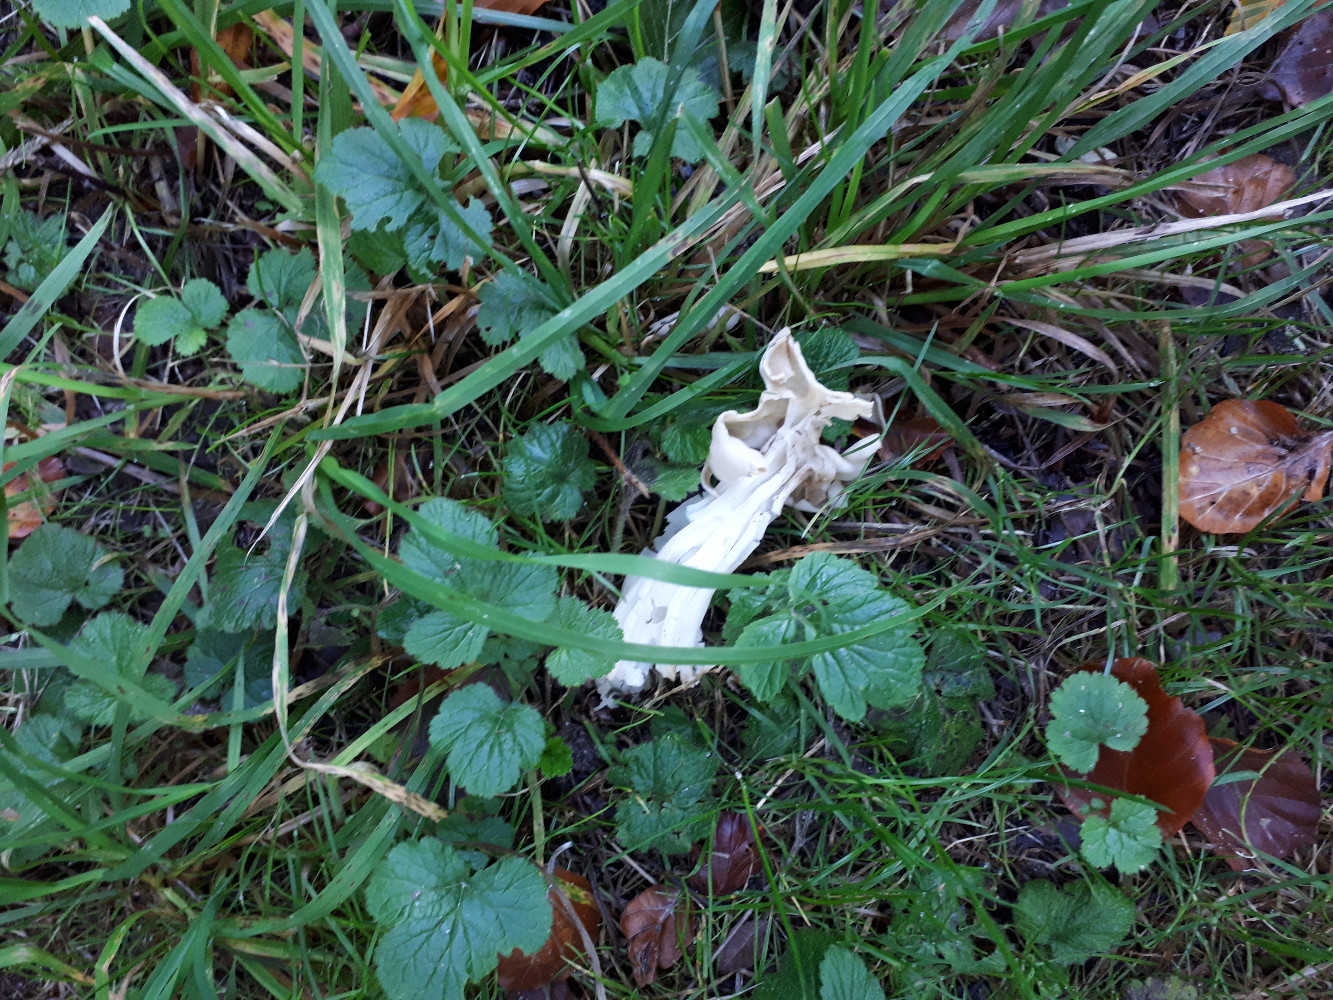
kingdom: Fungi
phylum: Ascomycota
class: Pezizomycetes
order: Pezizales
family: Helvellaceae
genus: Helvella
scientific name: Helvella crispa
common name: kruset foldhat
